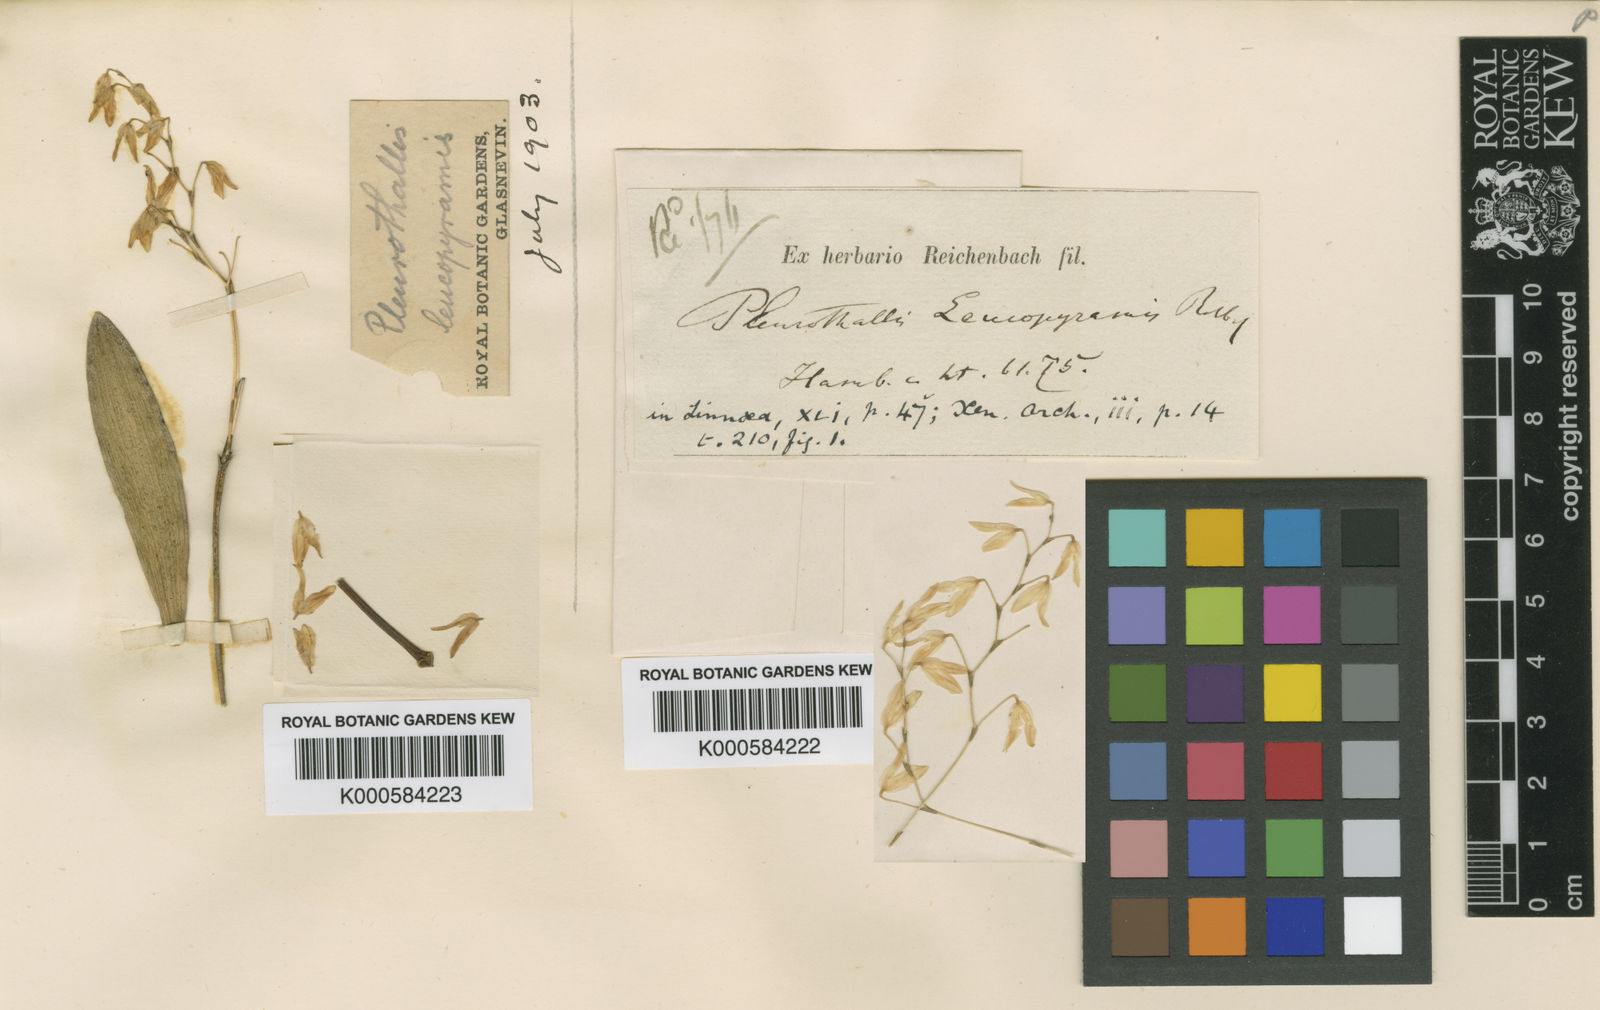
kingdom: Plantae
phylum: Tracheophyta
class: Liliopsida
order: Asparagales
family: Orchidaceae
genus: Pabstiella
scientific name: Pabstiella leucopyramis
